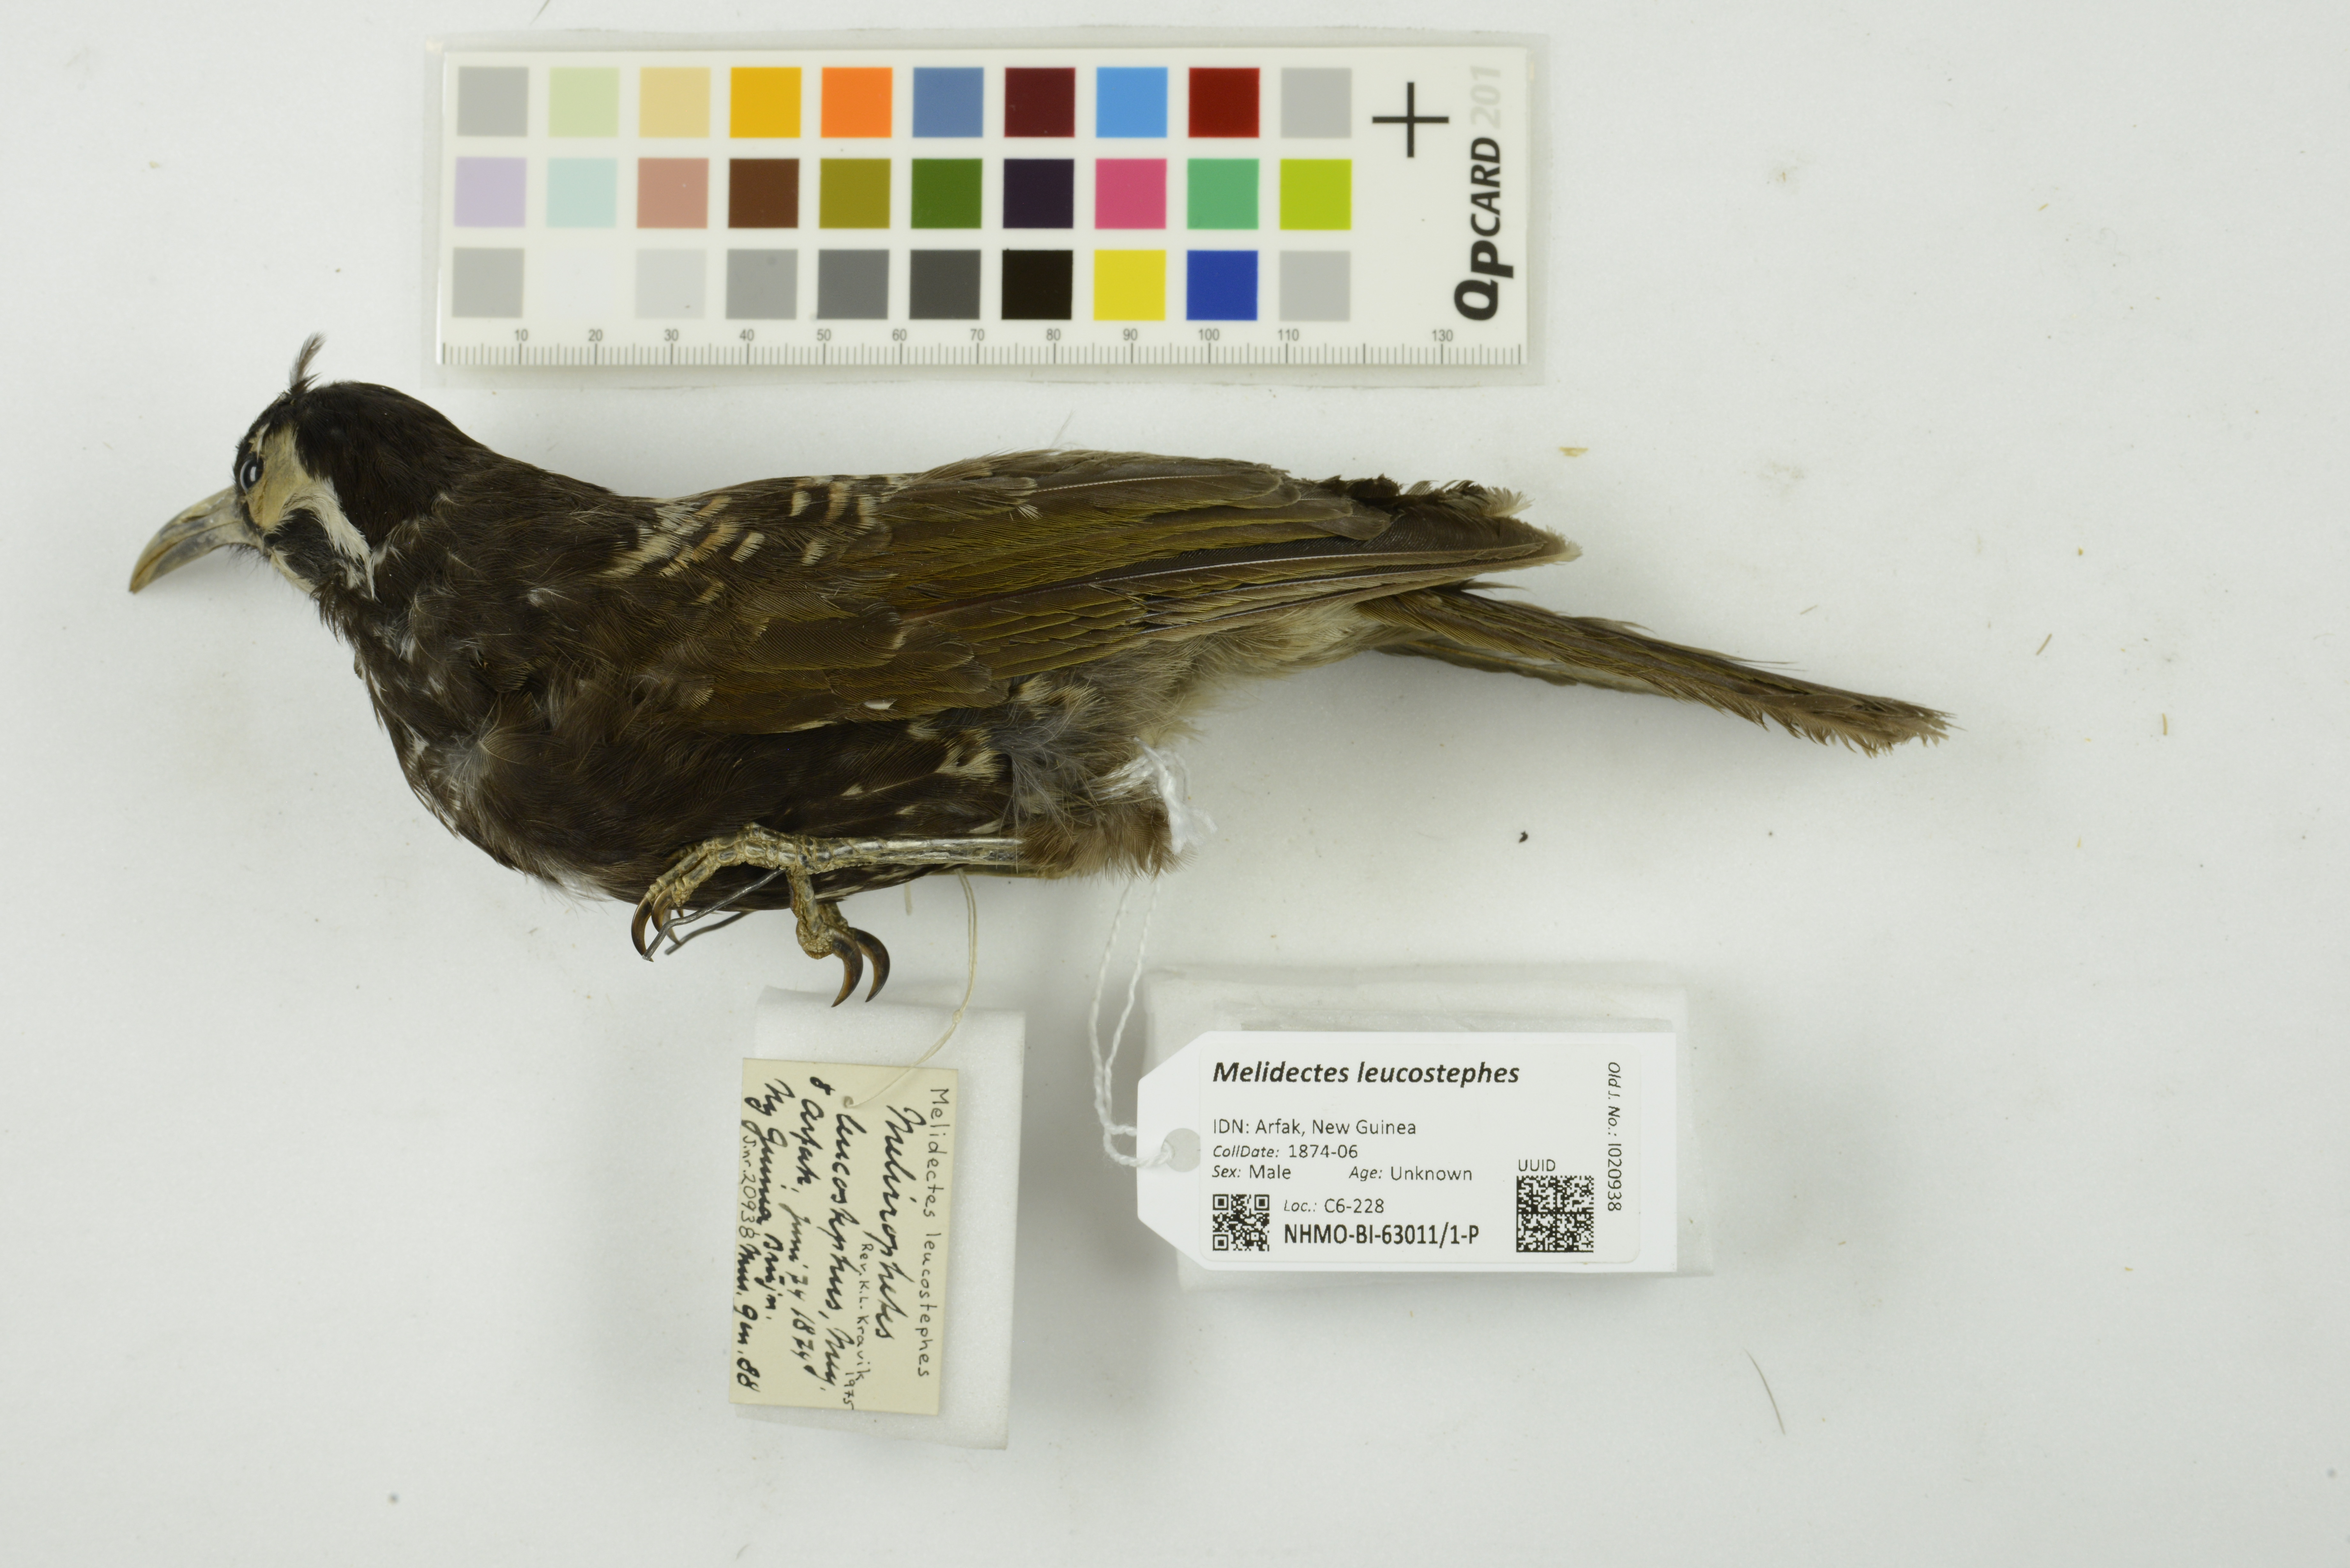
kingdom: Animalia
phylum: Chordata
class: Aves
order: Passeriformes
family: Meliphagidae
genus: Melidectes
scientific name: Melidectes leucostephes
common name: Vogelkop melidectes
